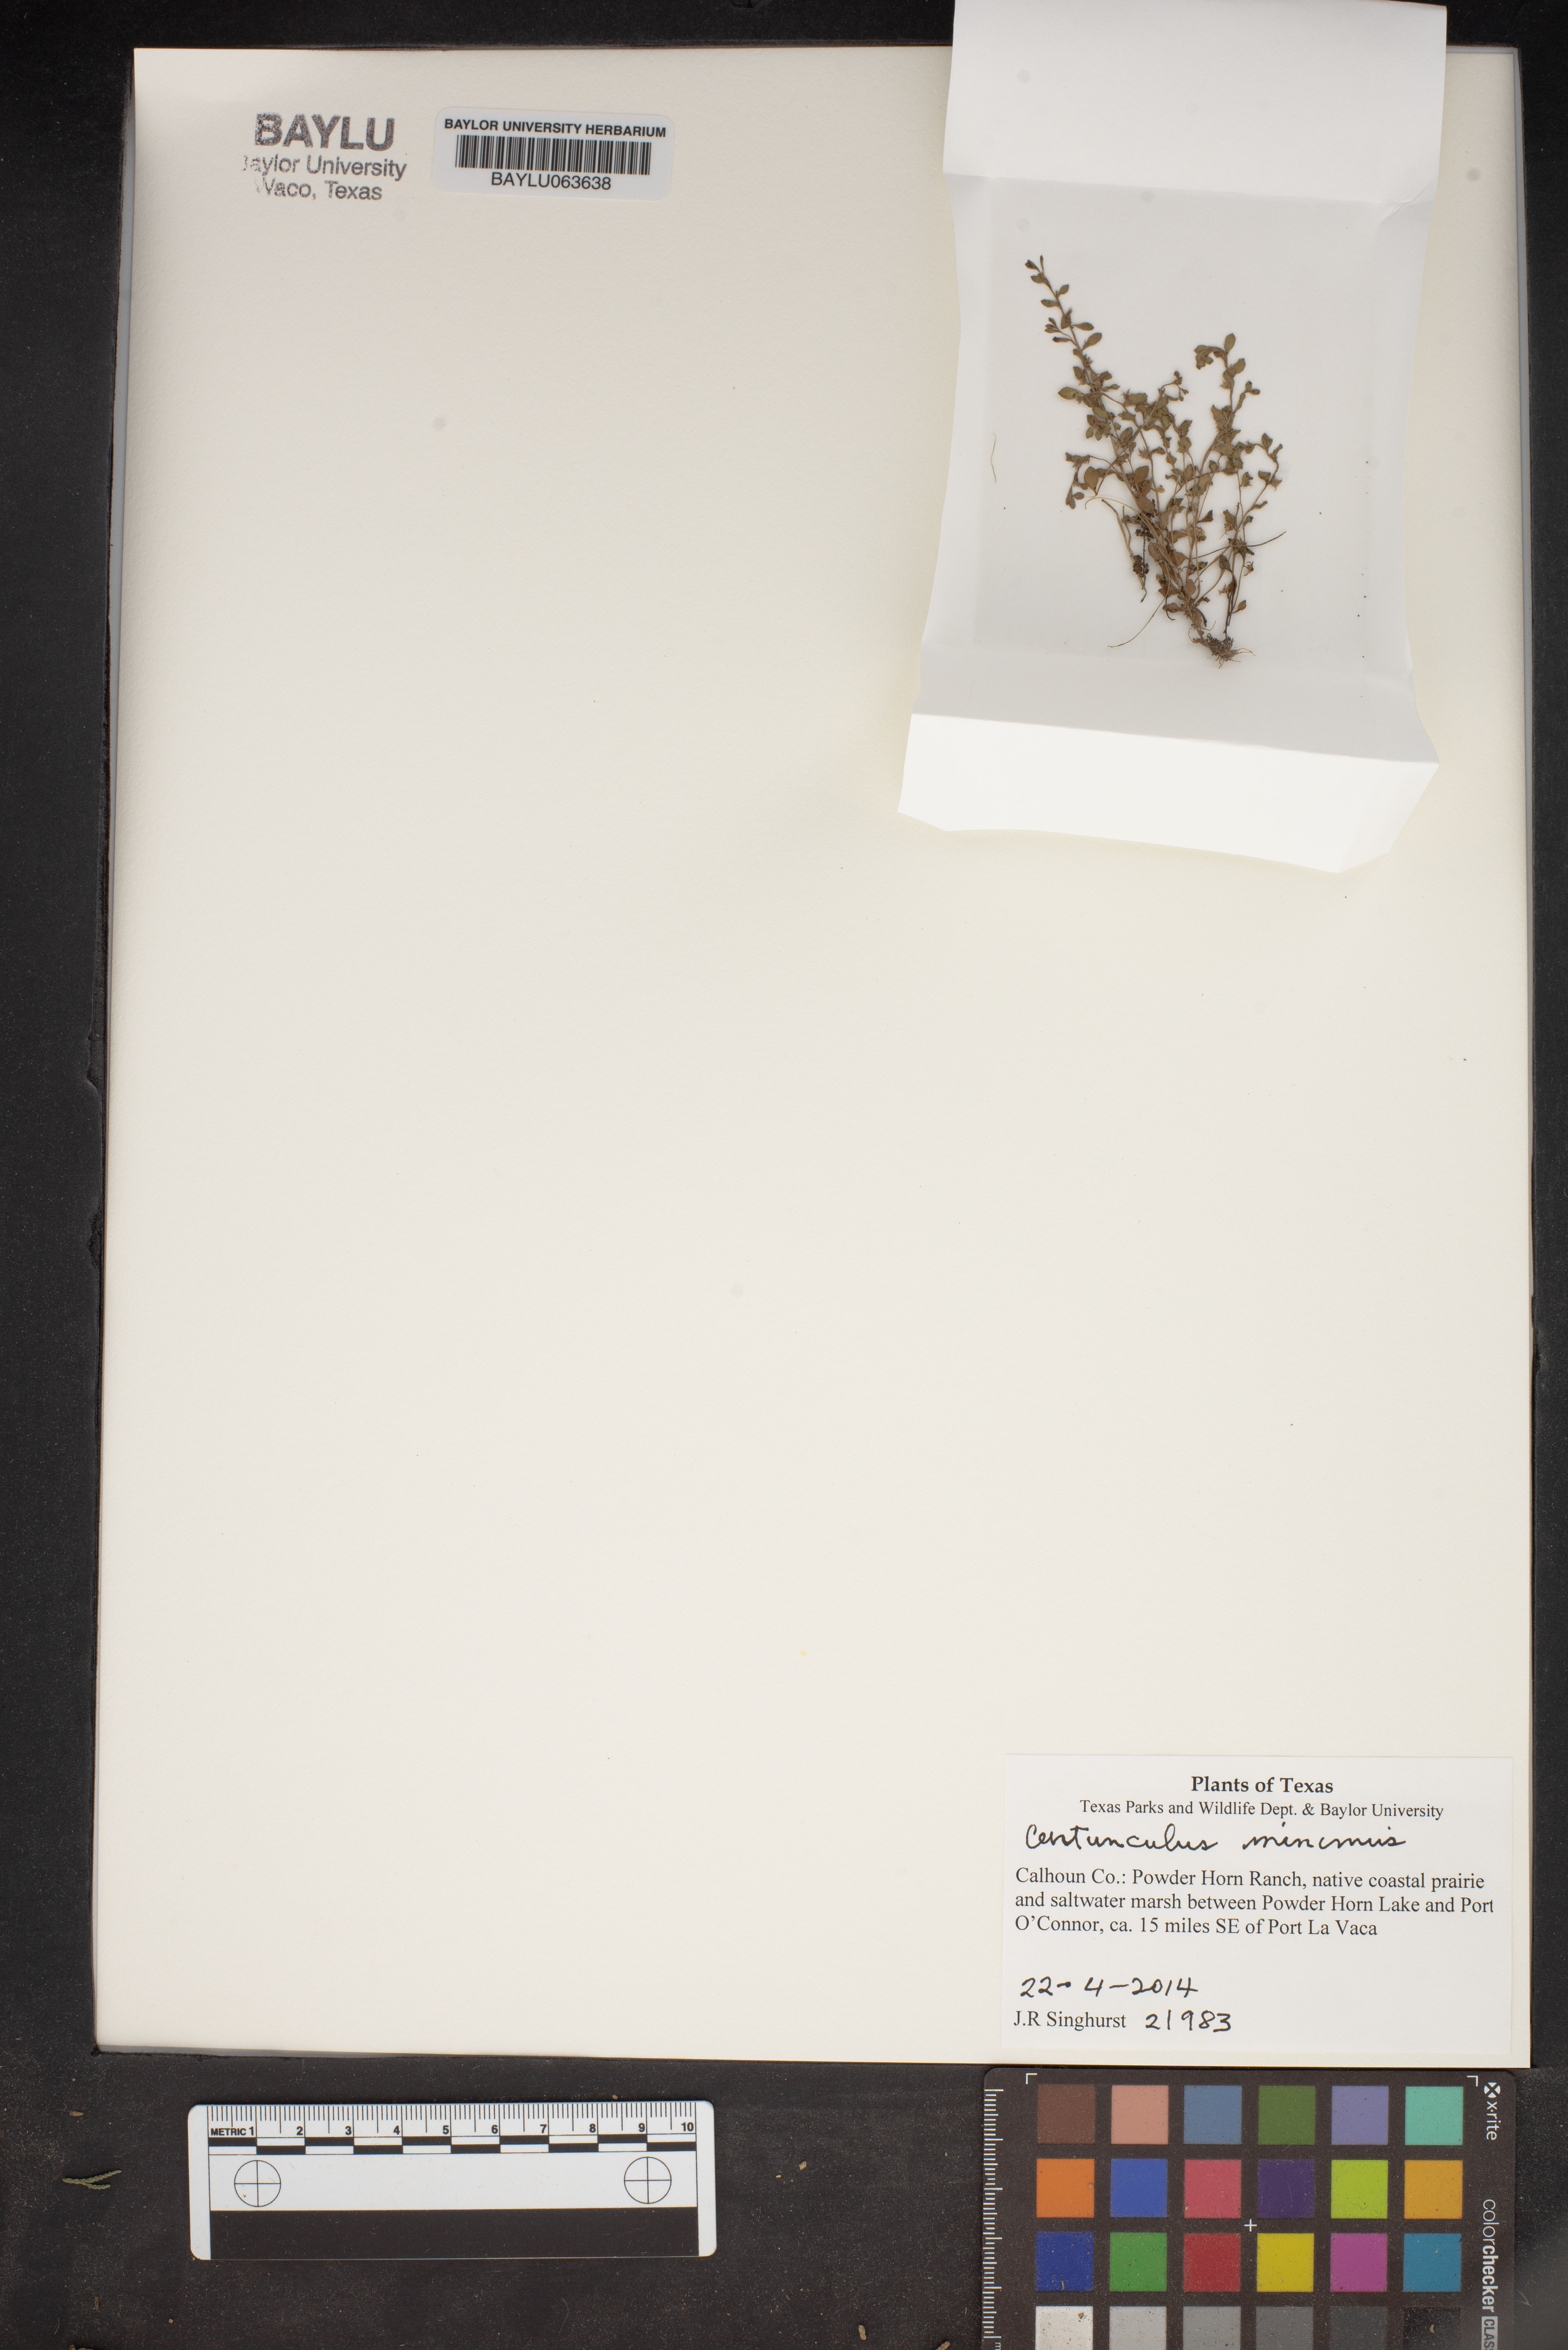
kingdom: Plantae
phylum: Tracheophyta
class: Magnoliopsida
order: Ericales
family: Primulaceae
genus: Lysimachia
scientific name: Lysimachia minima
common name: Chaffweed
